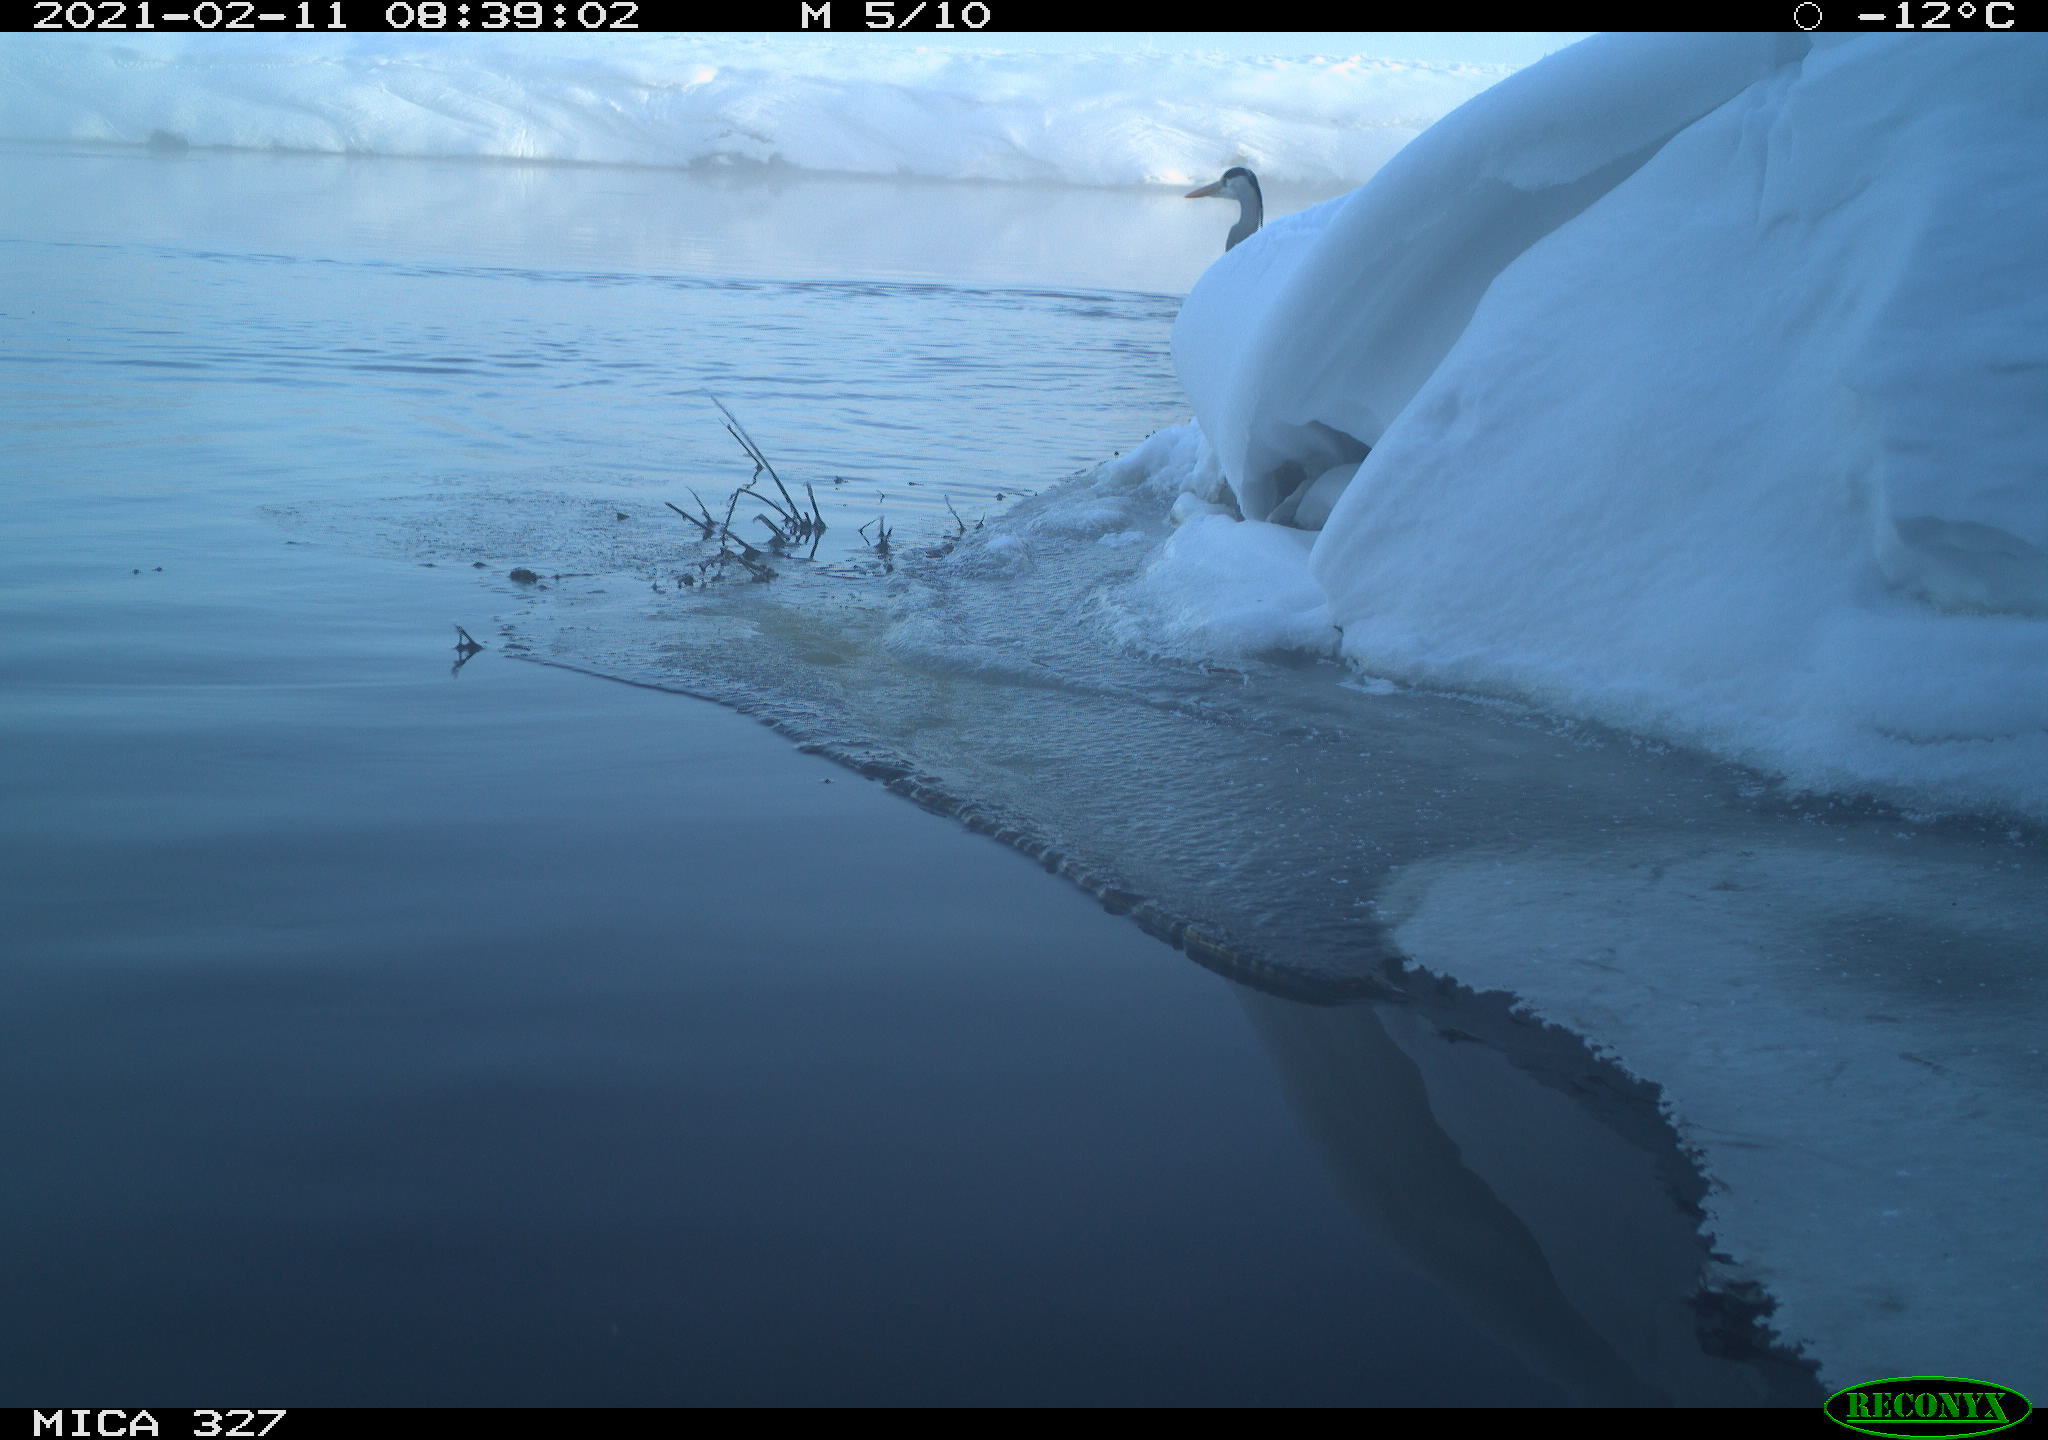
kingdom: Animalia
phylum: Chordata
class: Aves
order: Pelecaniformes
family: Ardeidae
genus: Ardea
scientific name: Ardea alba
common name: Great egret
